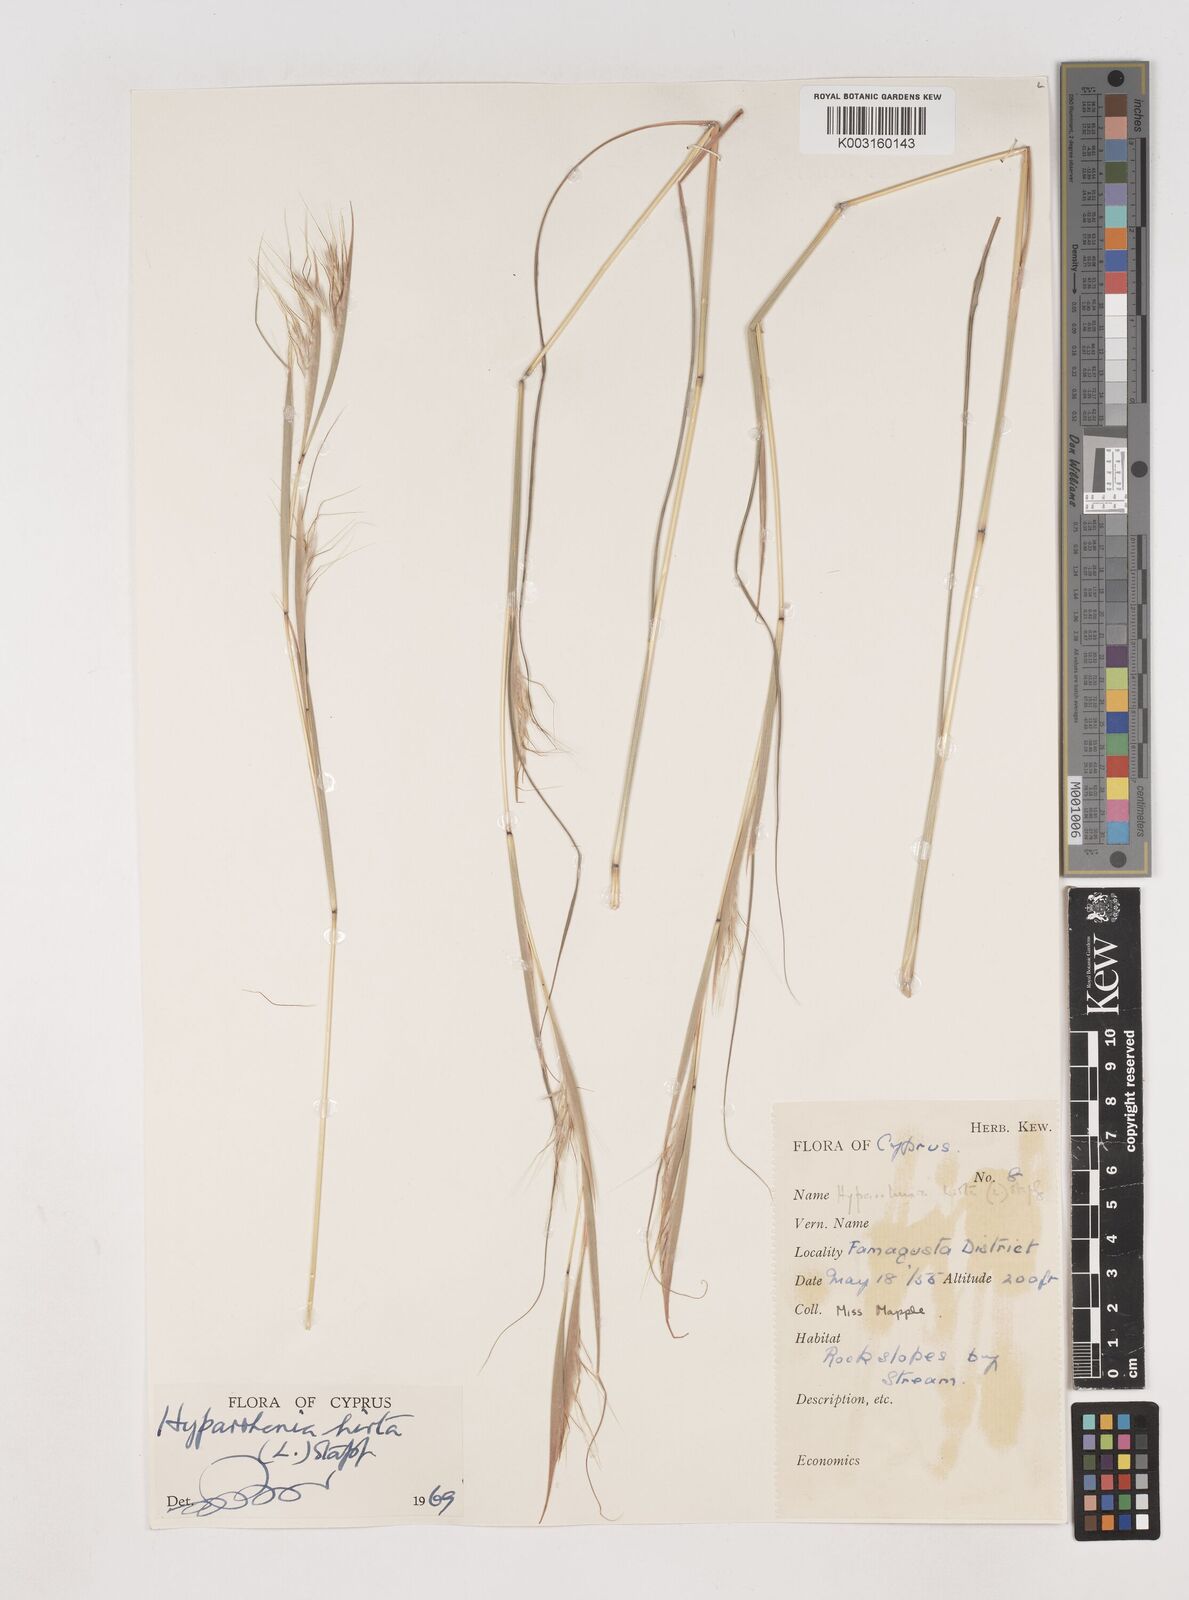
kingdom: Plantae
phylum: Tracheophyta
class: Liliopsida
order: Poales
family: Poaceae
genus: Hyparrhenia
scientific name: Hyparrhenia hirta
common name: Thatching grass
